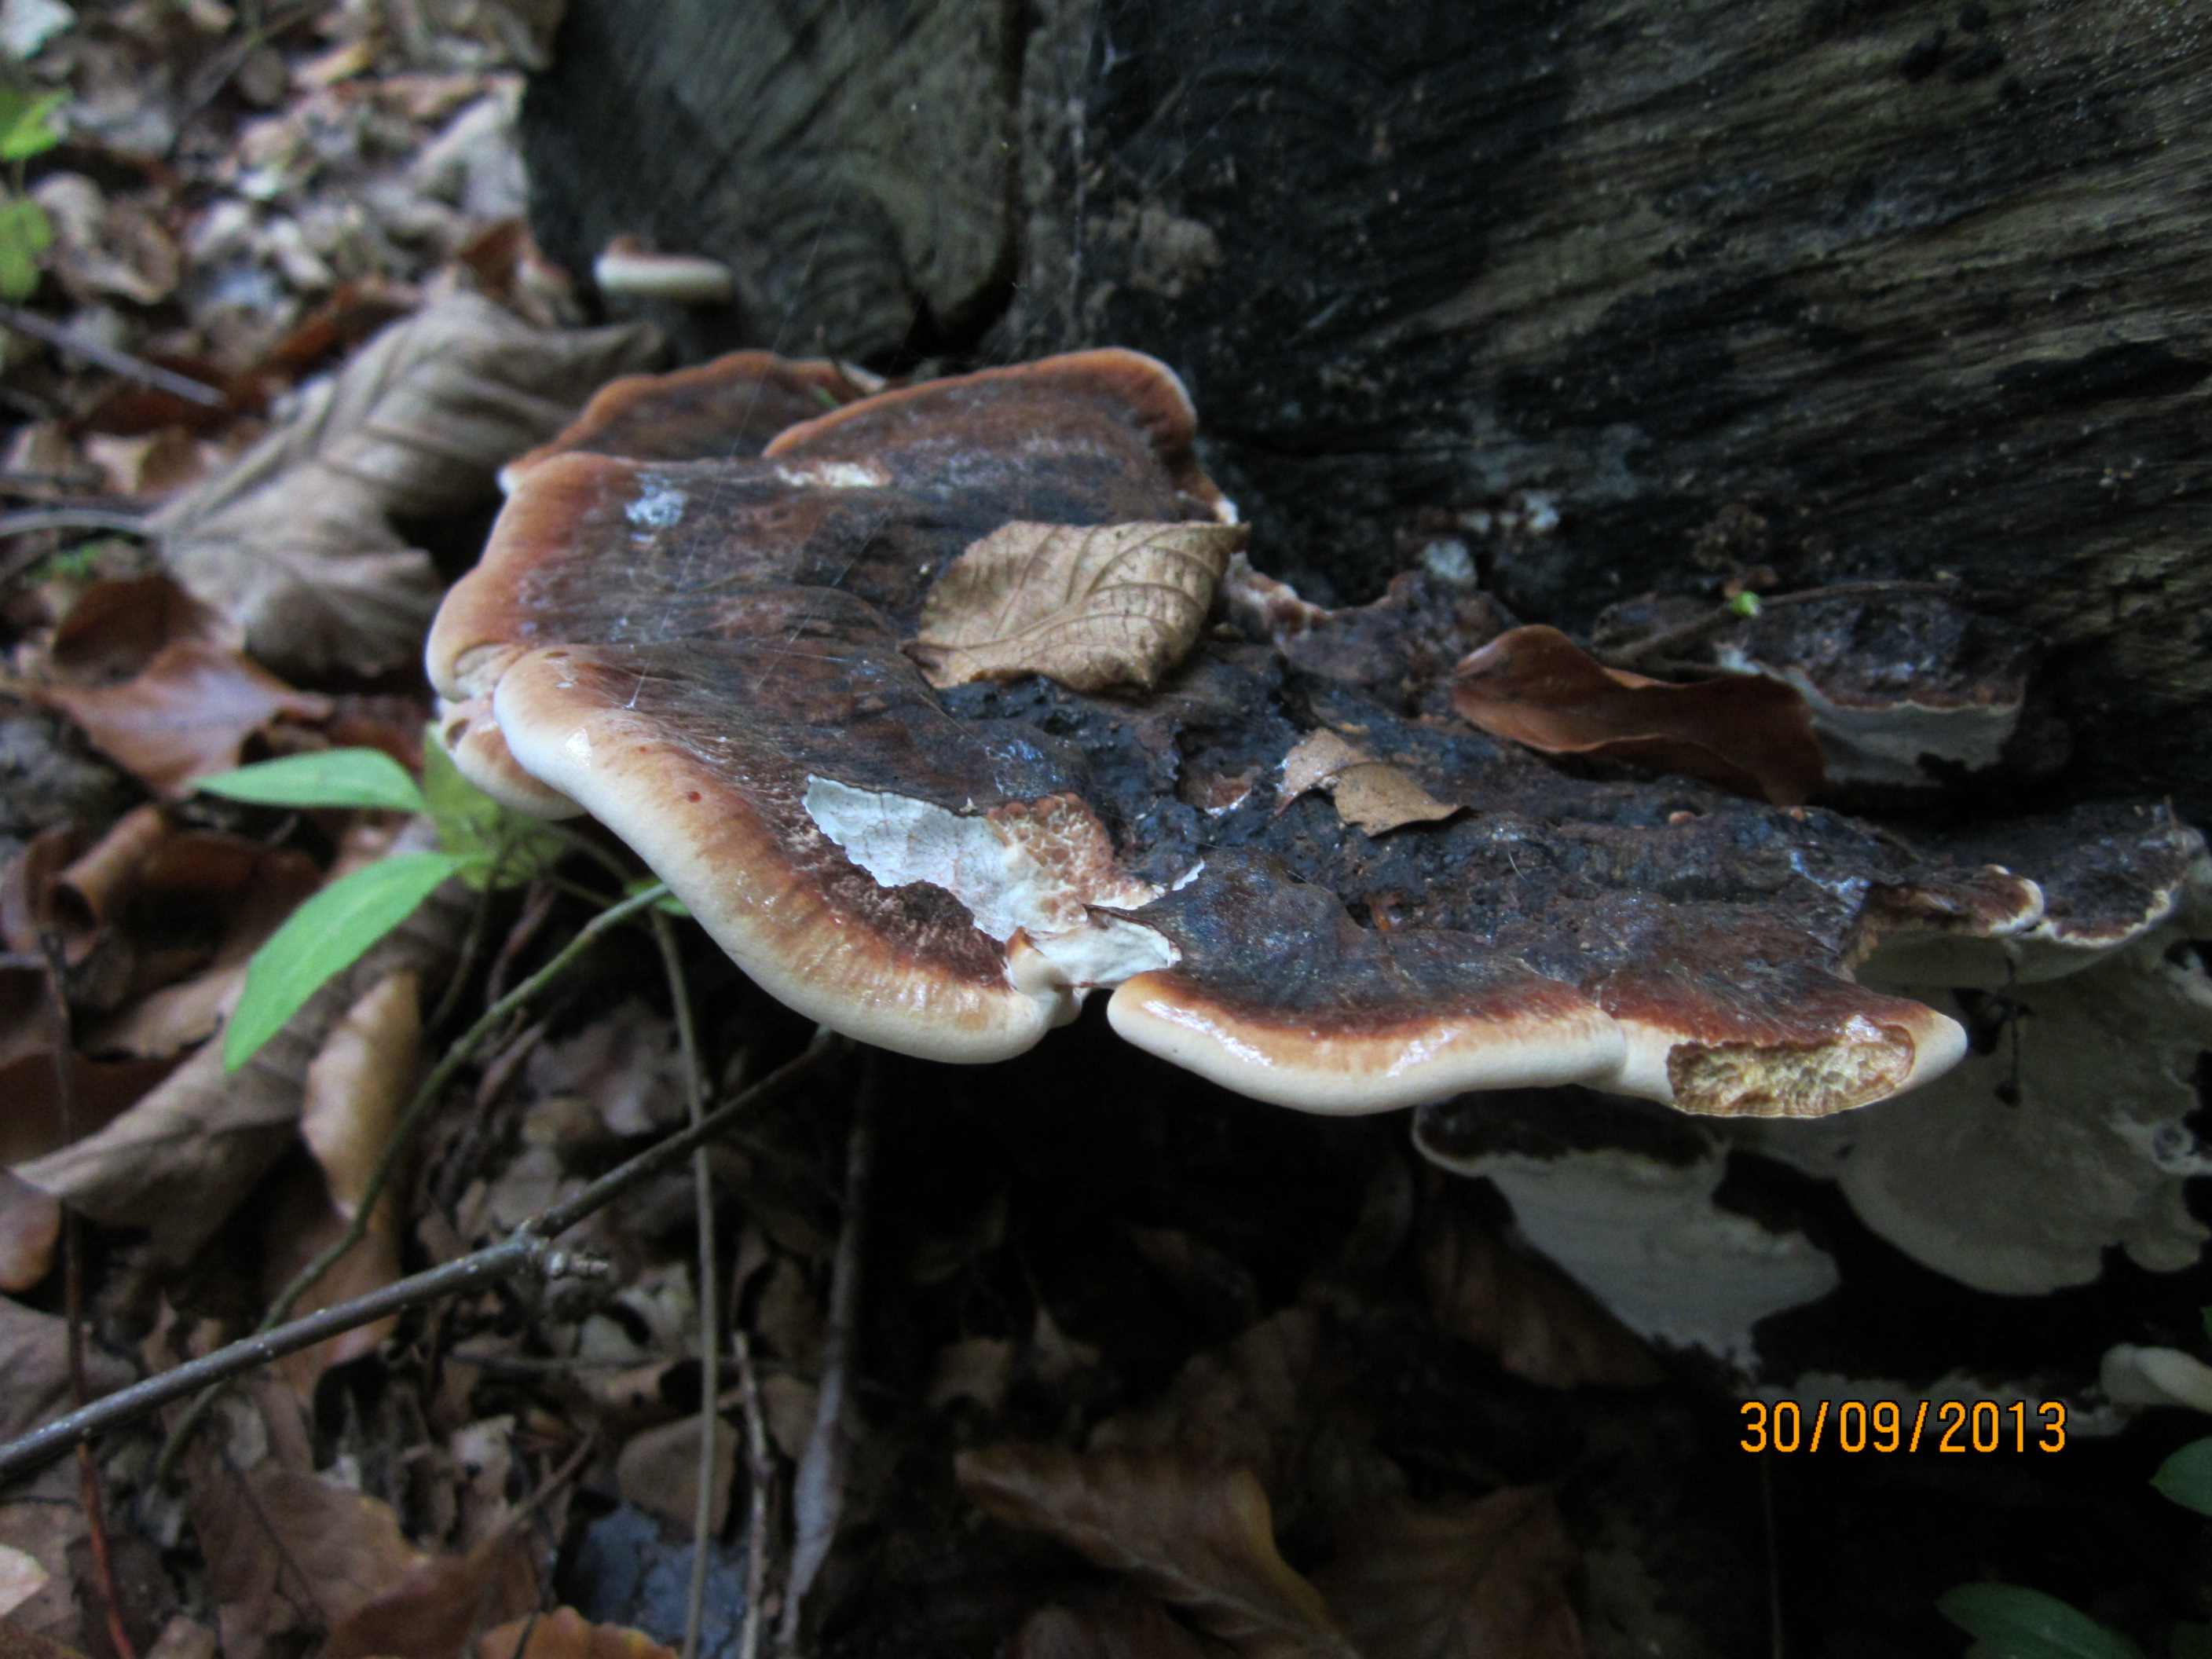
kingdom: Fungi
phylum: Basidiomycota
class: Agaricomycetes
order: Polyporales
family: Ischnodermataceae
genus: Ischnoderma
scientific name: Ischnoderma resinosum
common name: løv-tjæreporesvamp
